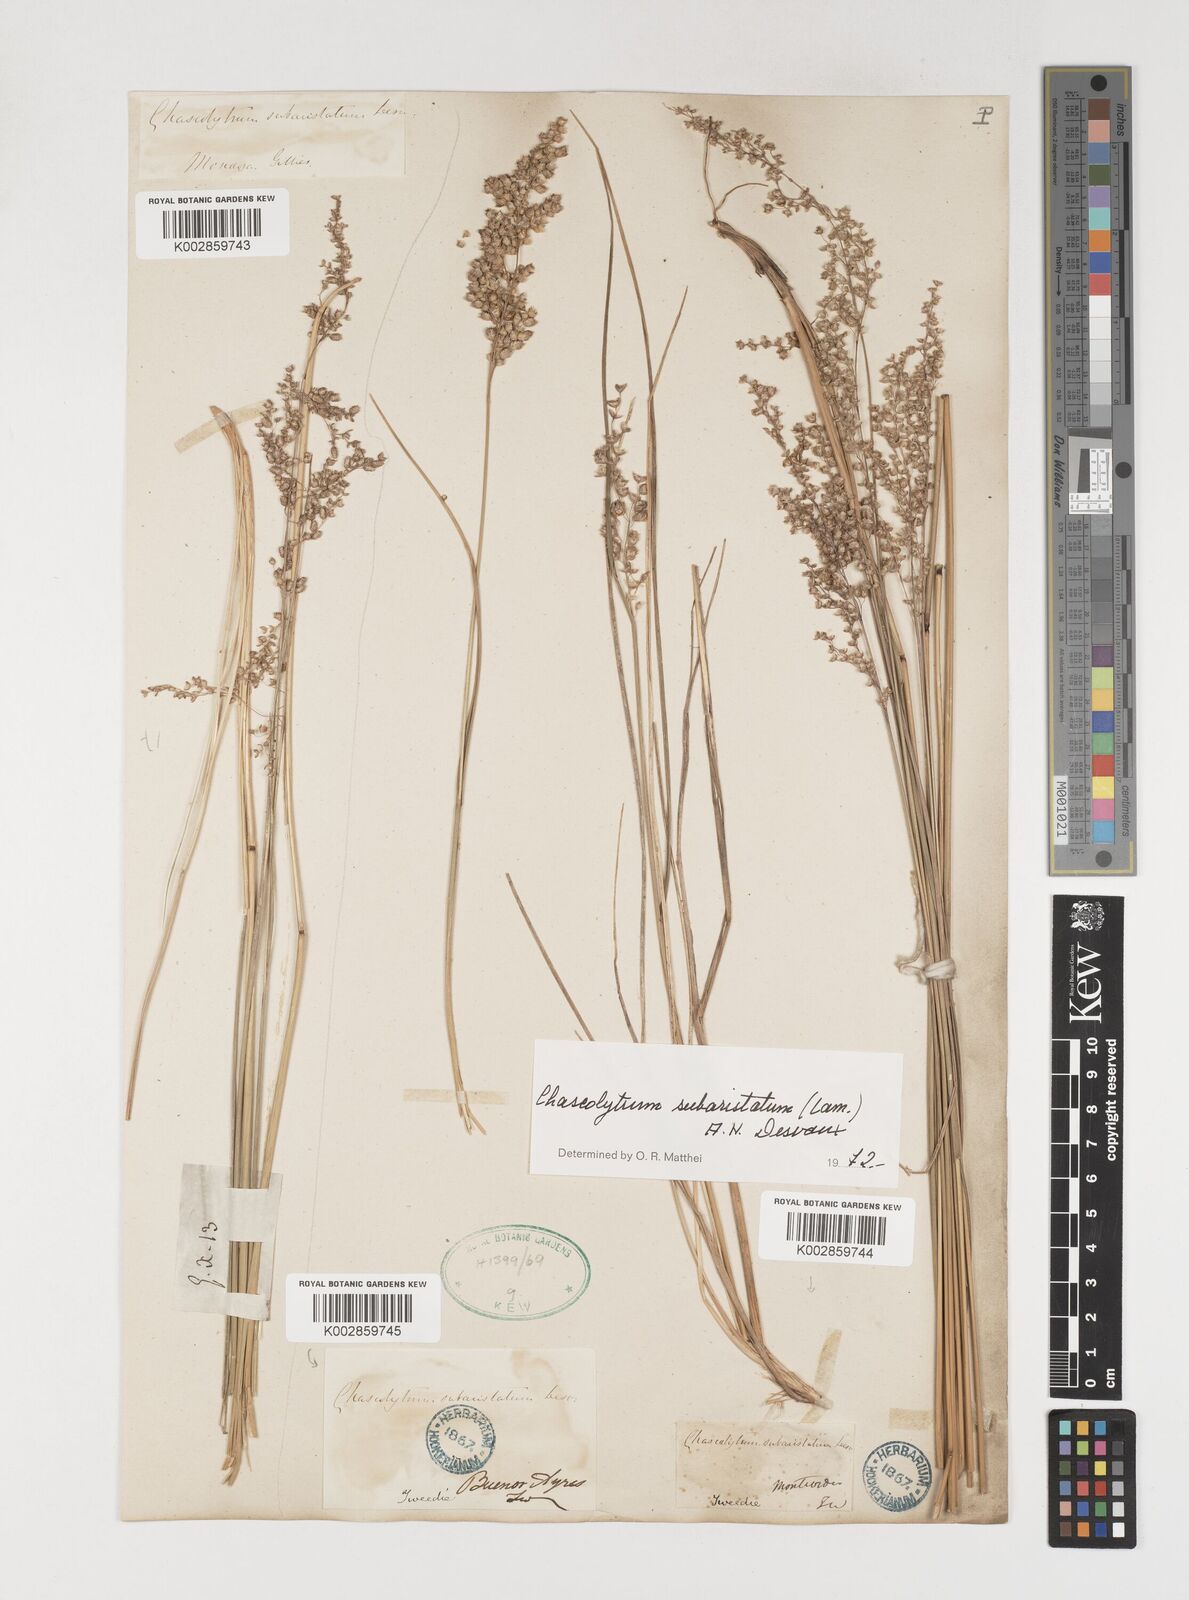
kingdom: Plantae
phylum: Tracheophyta
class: Liliopsida
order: Poales
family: Poaceae
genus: Chascolytrum
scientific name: Chascolytrum subaristatum
